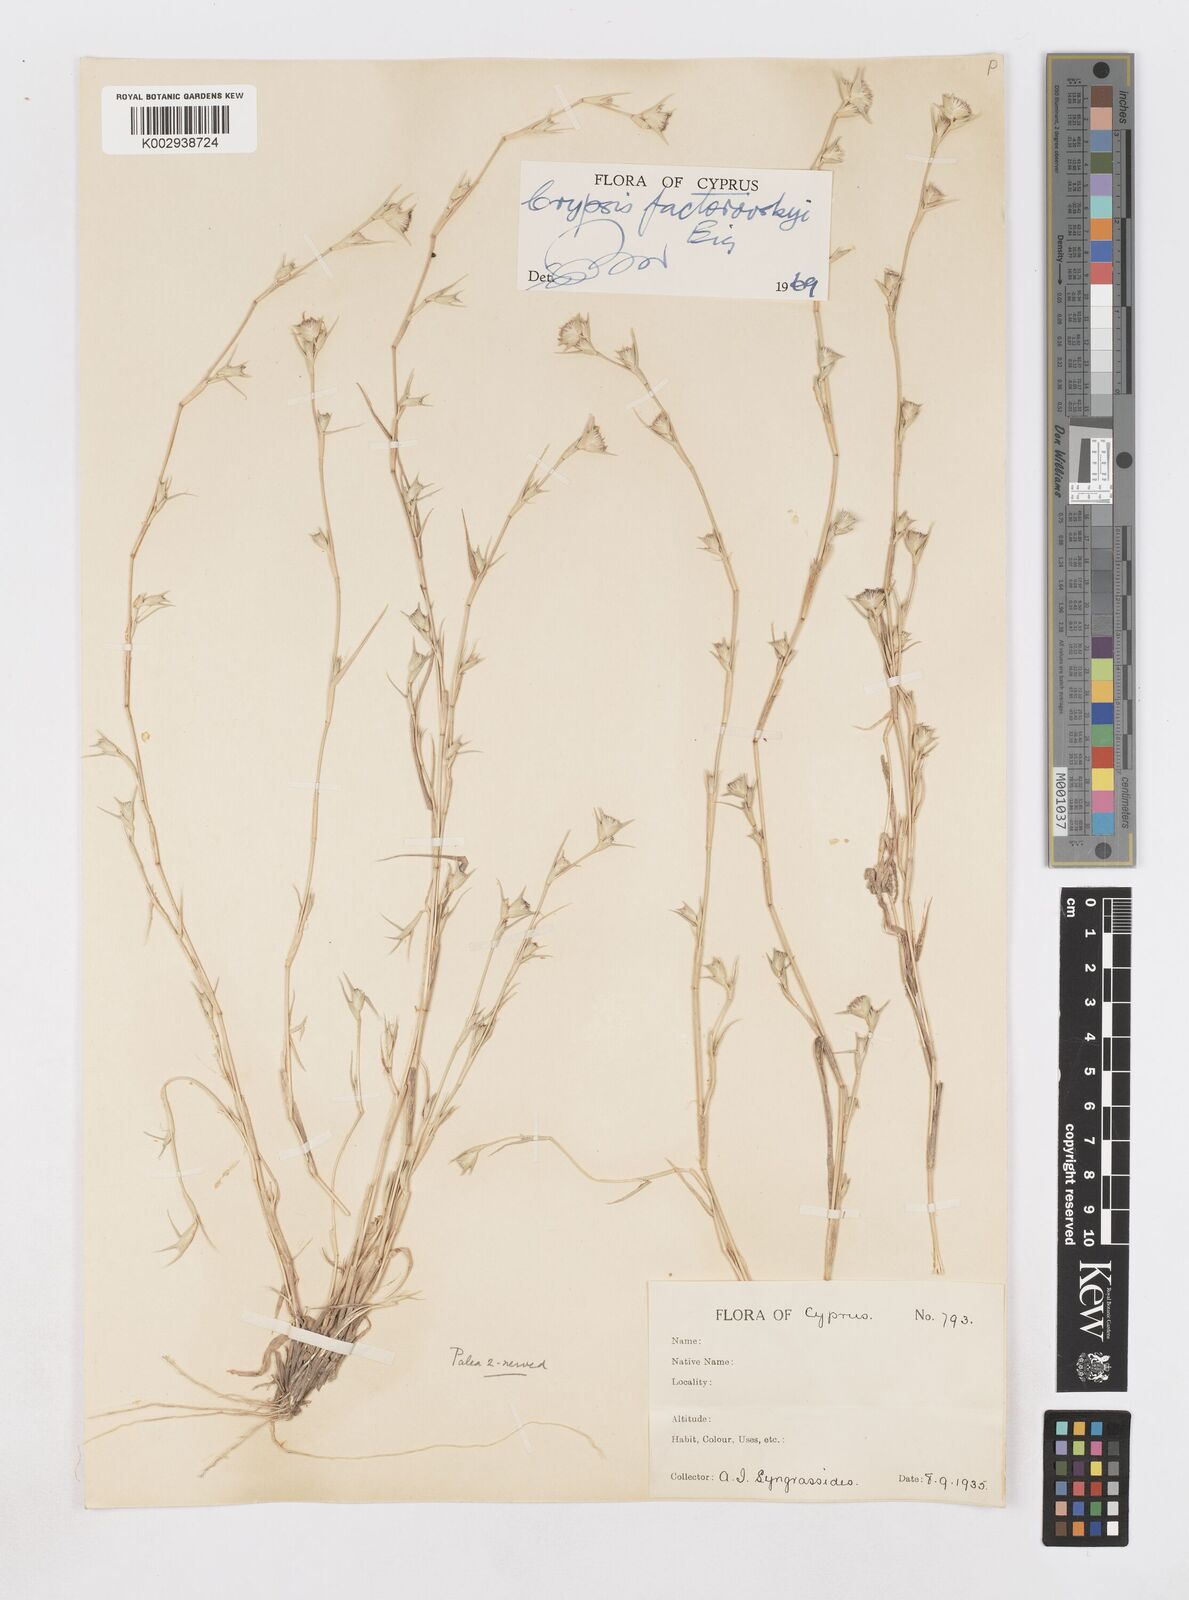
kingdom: Plantae
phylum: Tracheophyta
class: Liliopsida
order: Poales
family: Poaceae
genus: Sporobolus
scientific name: Sporobolus factorovskyi
